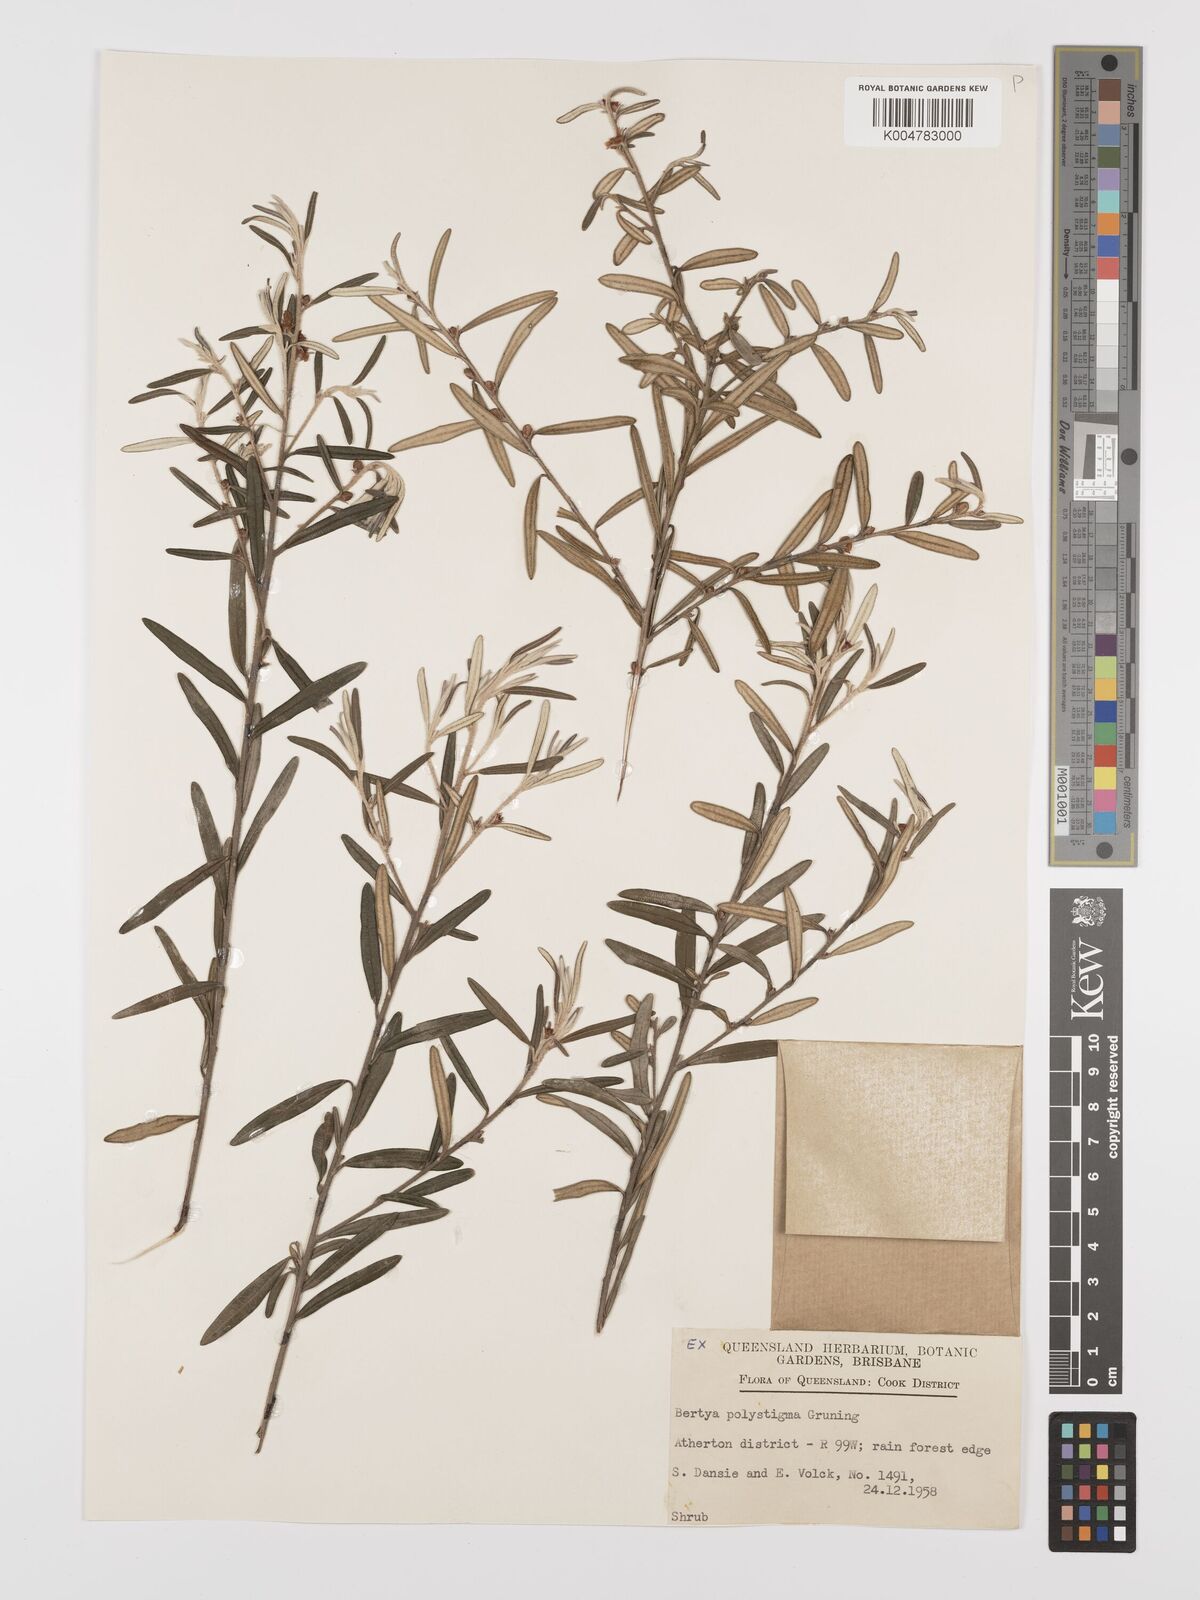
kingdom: Plantae
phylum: Tracheophyta
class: Magnoliopsida
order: Malpighiales
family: Euphorbiaceae
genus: Bertya
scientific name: Bertya polystigma
